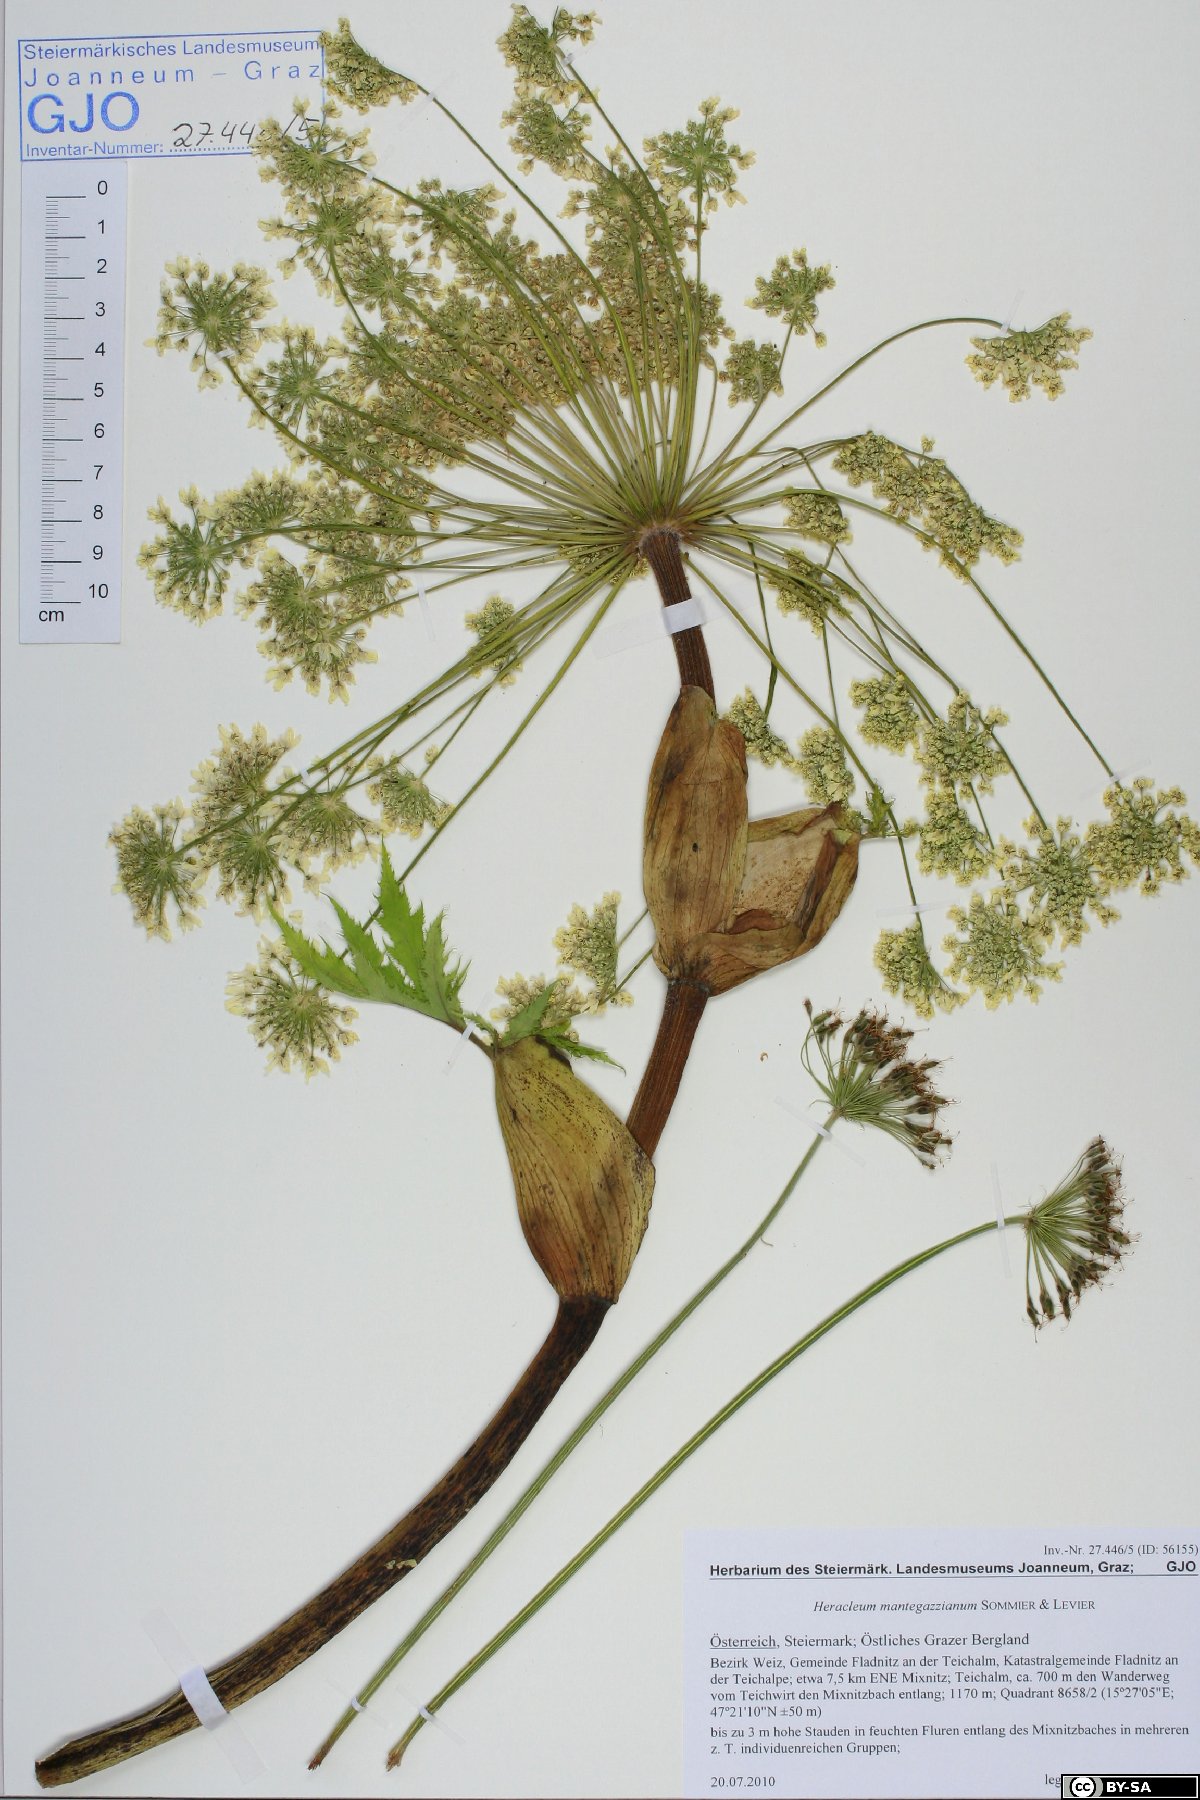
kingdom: Plantae
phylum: Tracheophyta
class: Magnoliopsida
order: Apiales
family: Apiaceae
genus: Heracleum
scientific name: Heracleum mantegazzianum
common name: Giant hogweed
